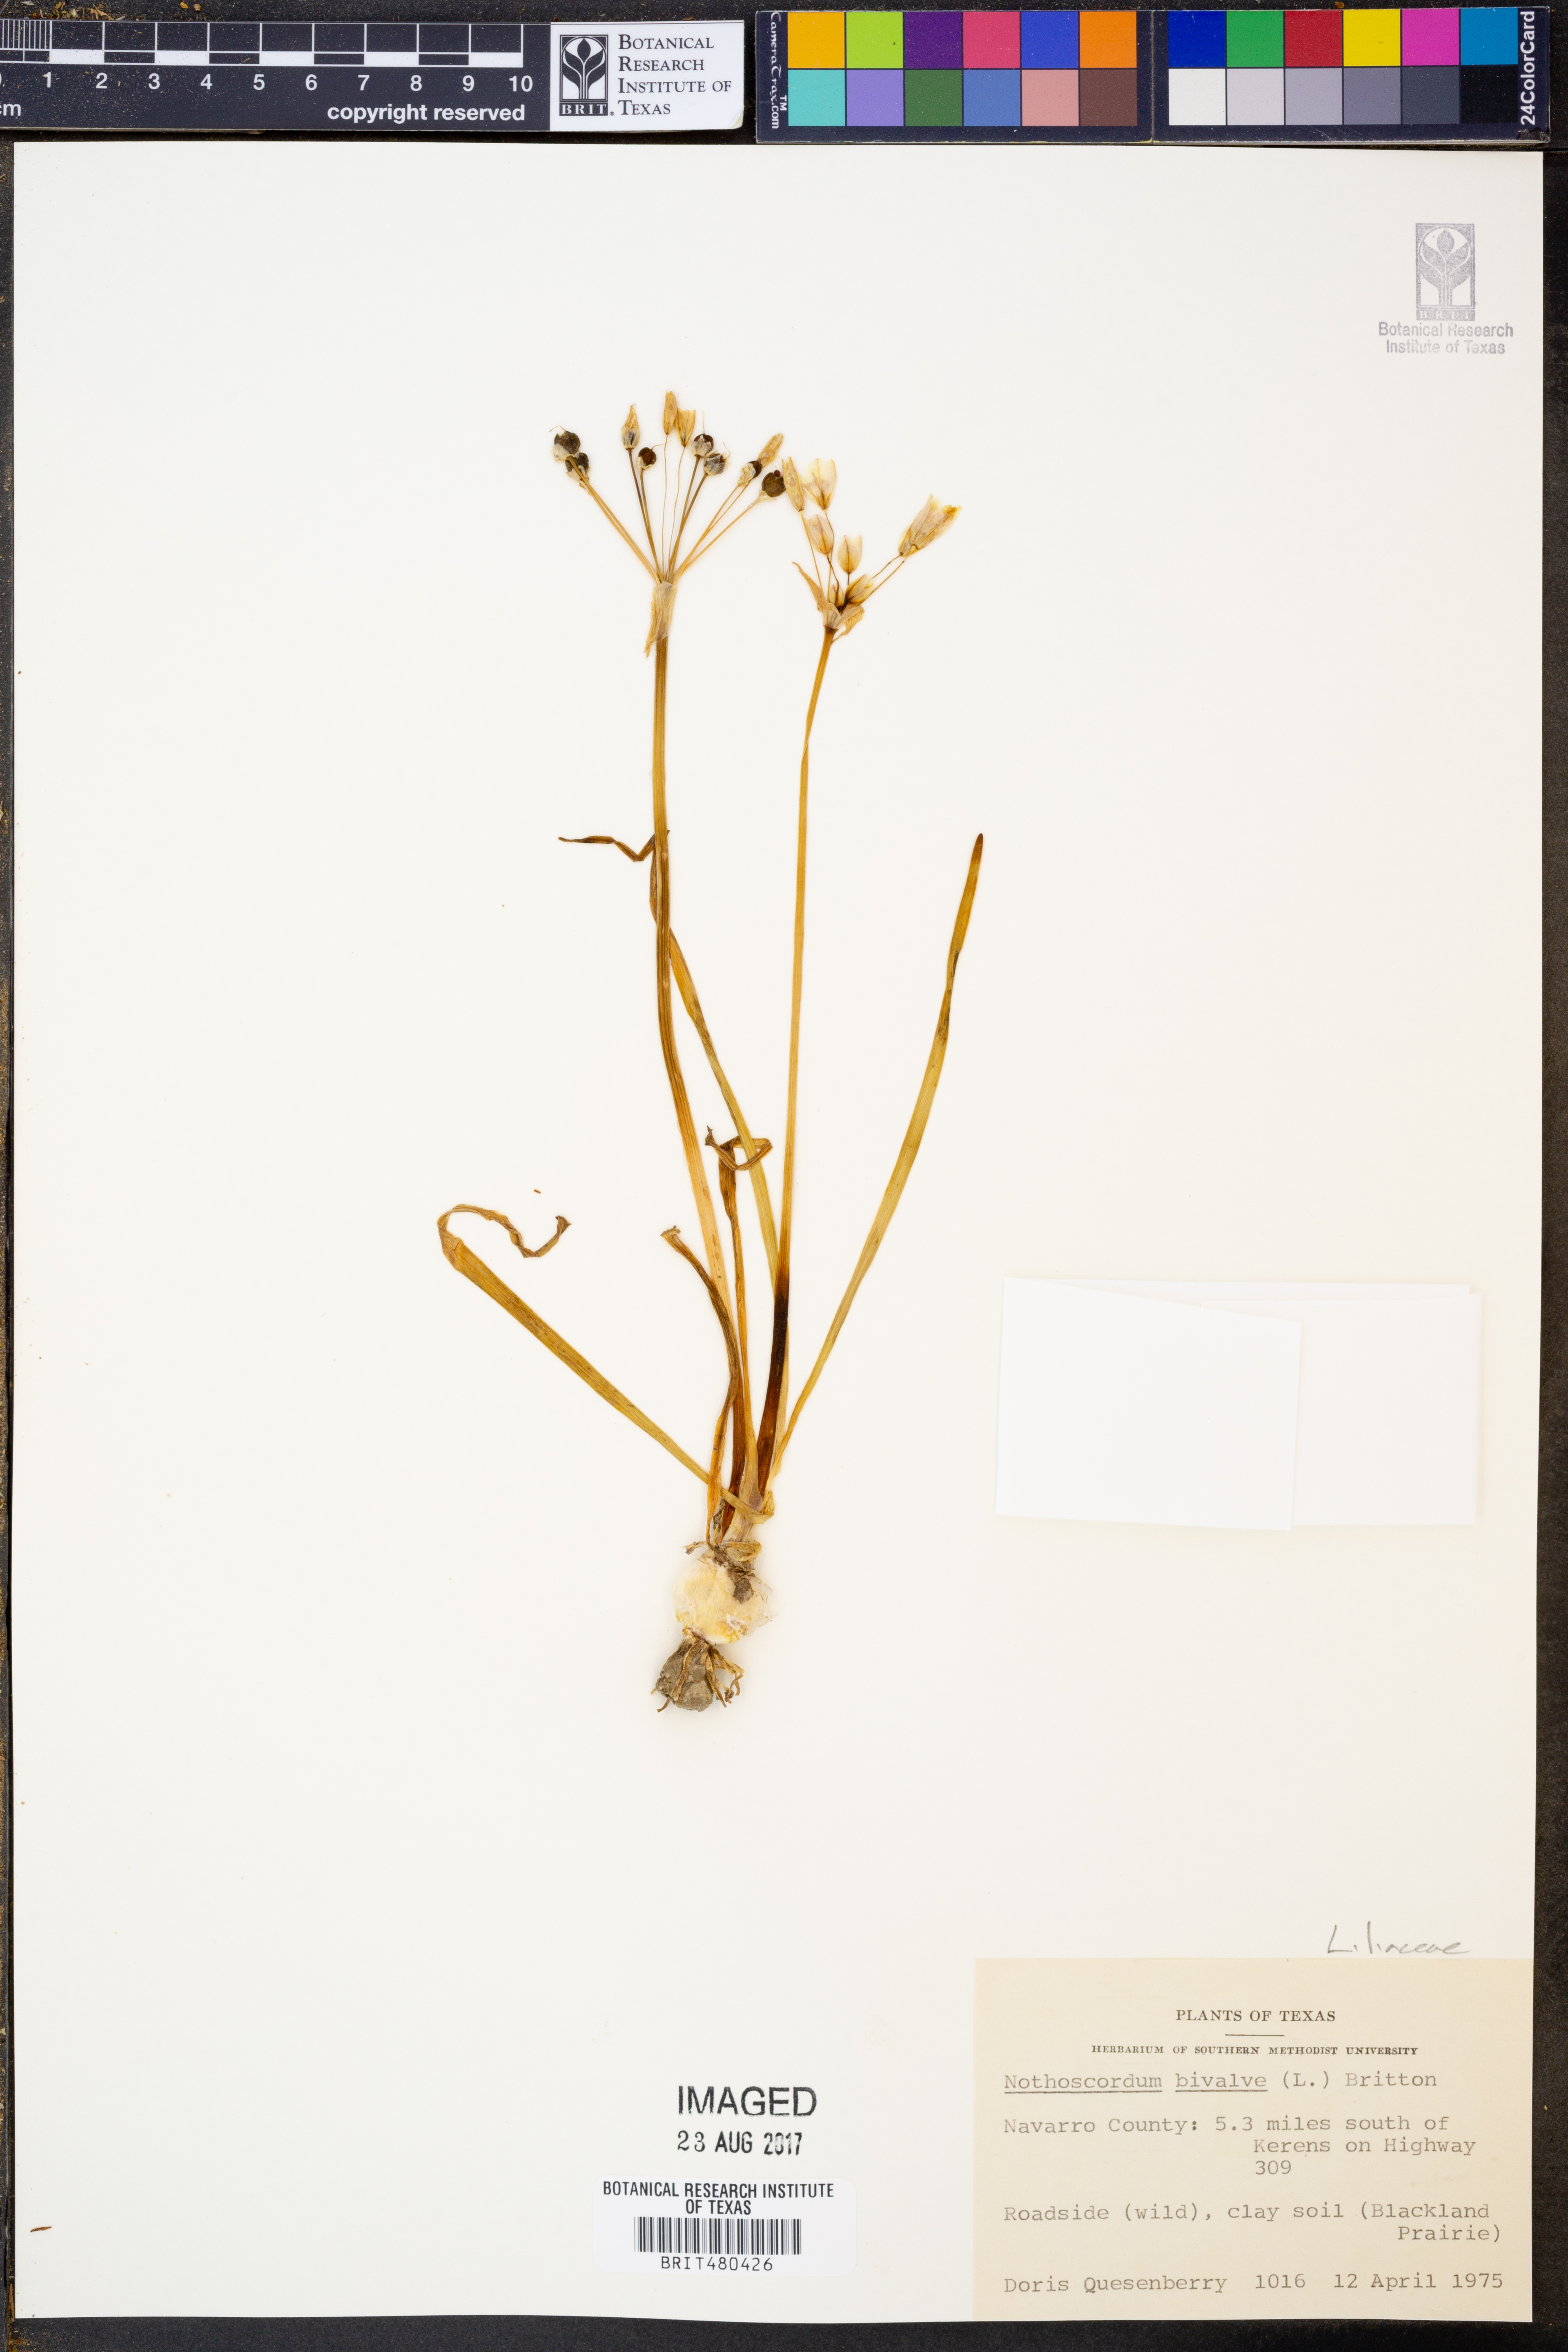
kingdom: Plantae
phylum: Tracheophyta
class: Liliopsida
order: Asparagales
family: Amaryllidaceae
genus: Nothoscordum
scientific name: Nothoscordum bivalve
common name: Crow-poison
